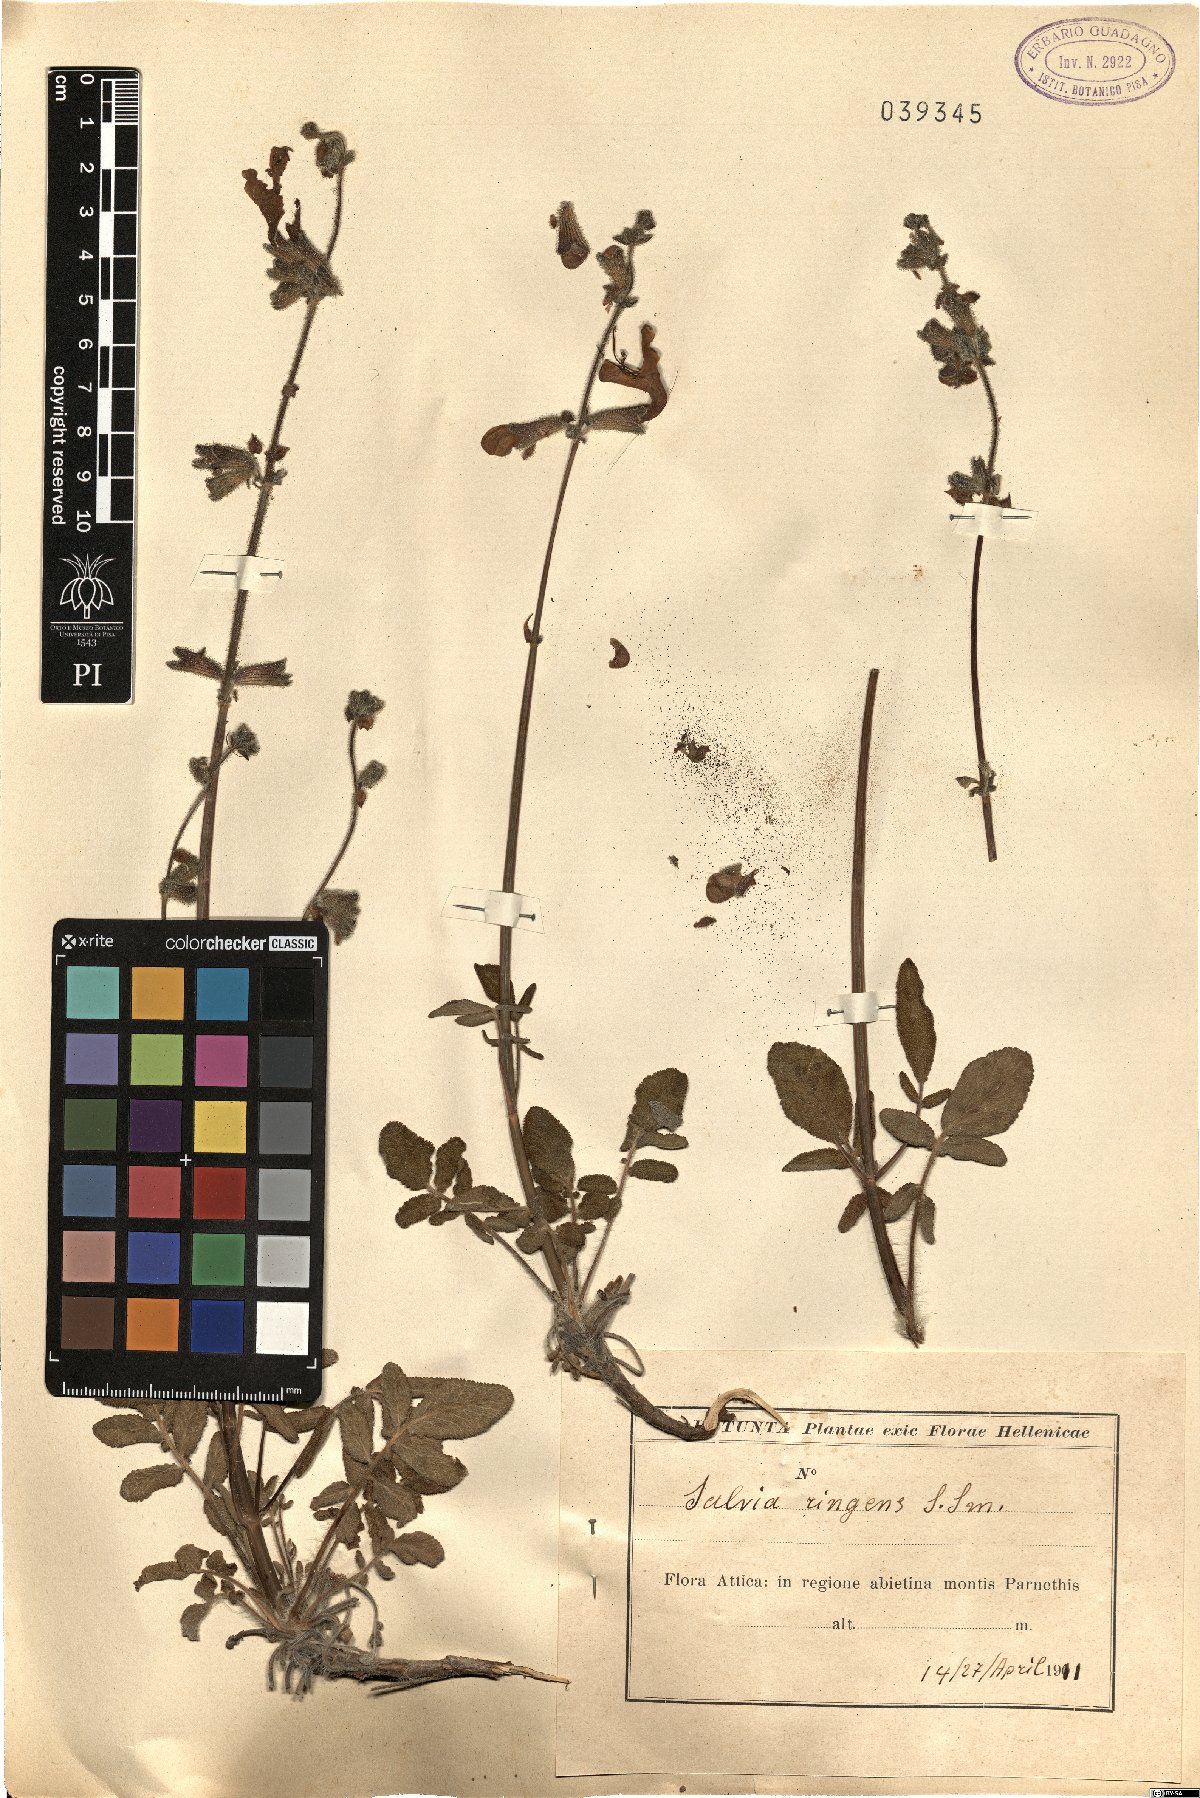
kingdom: Plantae
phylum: Tracheophyta
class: Magnoliopsida
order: Lamiales
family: Lamiaceae
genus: Salvia
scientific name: Salvia ringens
